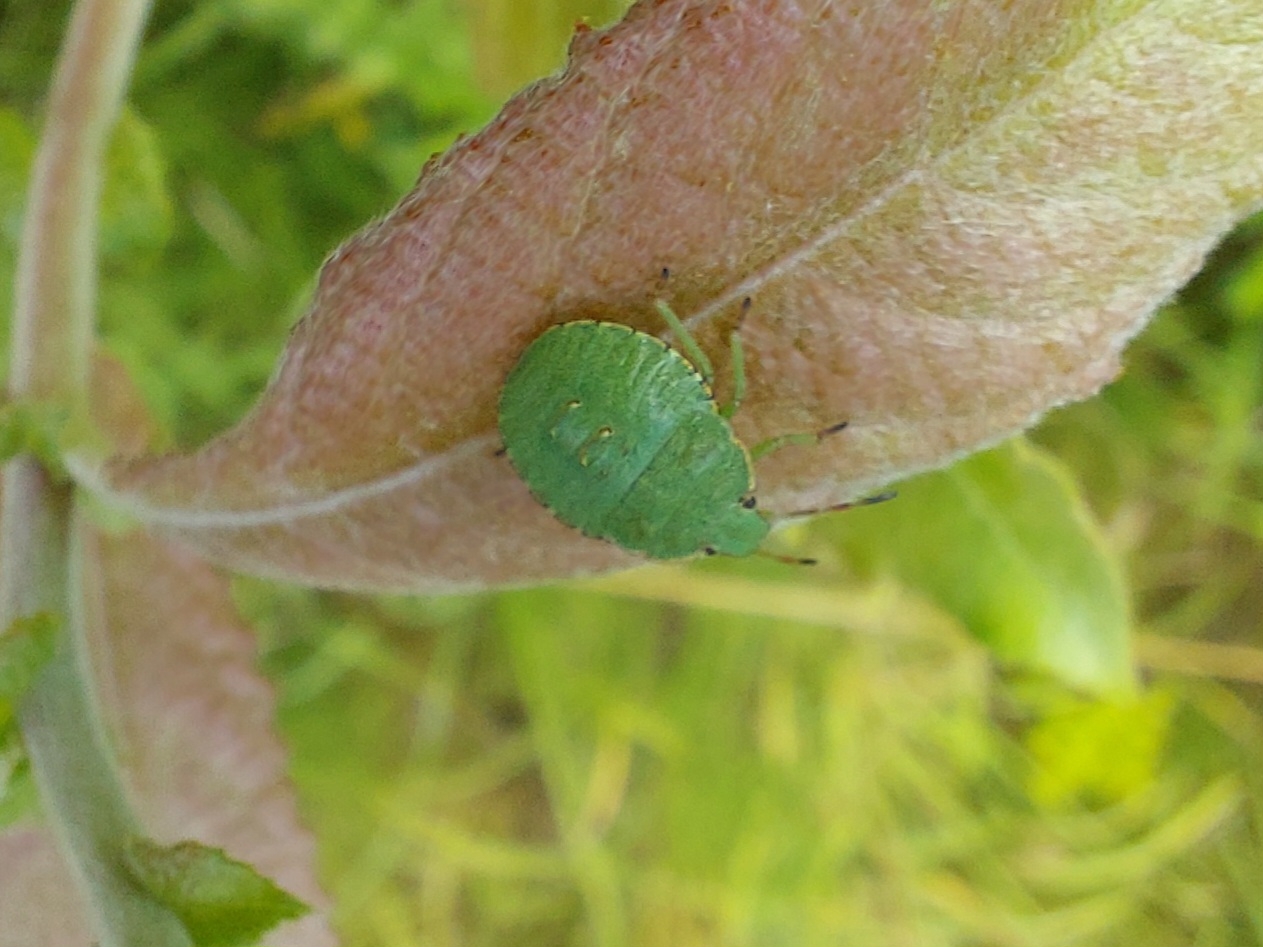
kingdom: Animalia
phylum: Arthropoda
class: Insecta
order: Hemiptera
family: Pentatomidae
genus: Palomena
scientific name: Palomena prasina
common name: Grøn bredtæge
